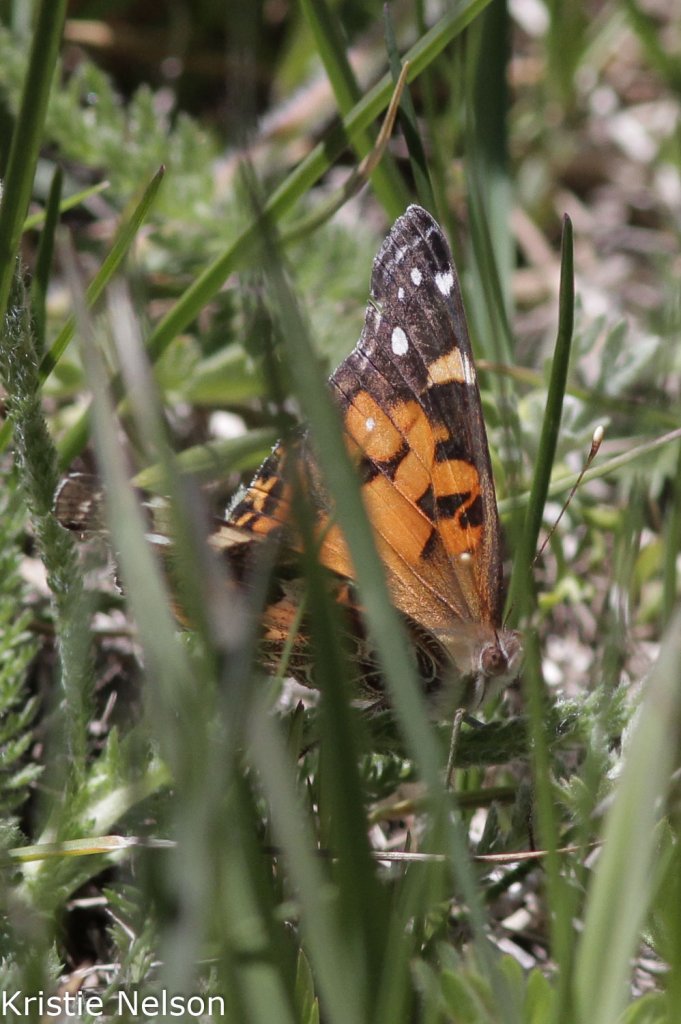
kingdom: Animalia
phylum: Arthropoda
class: Insecta
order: Lepidoptera
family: Nymphalidae
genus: Vanessa
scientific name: Vanessa virginiensis
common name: American Lady
